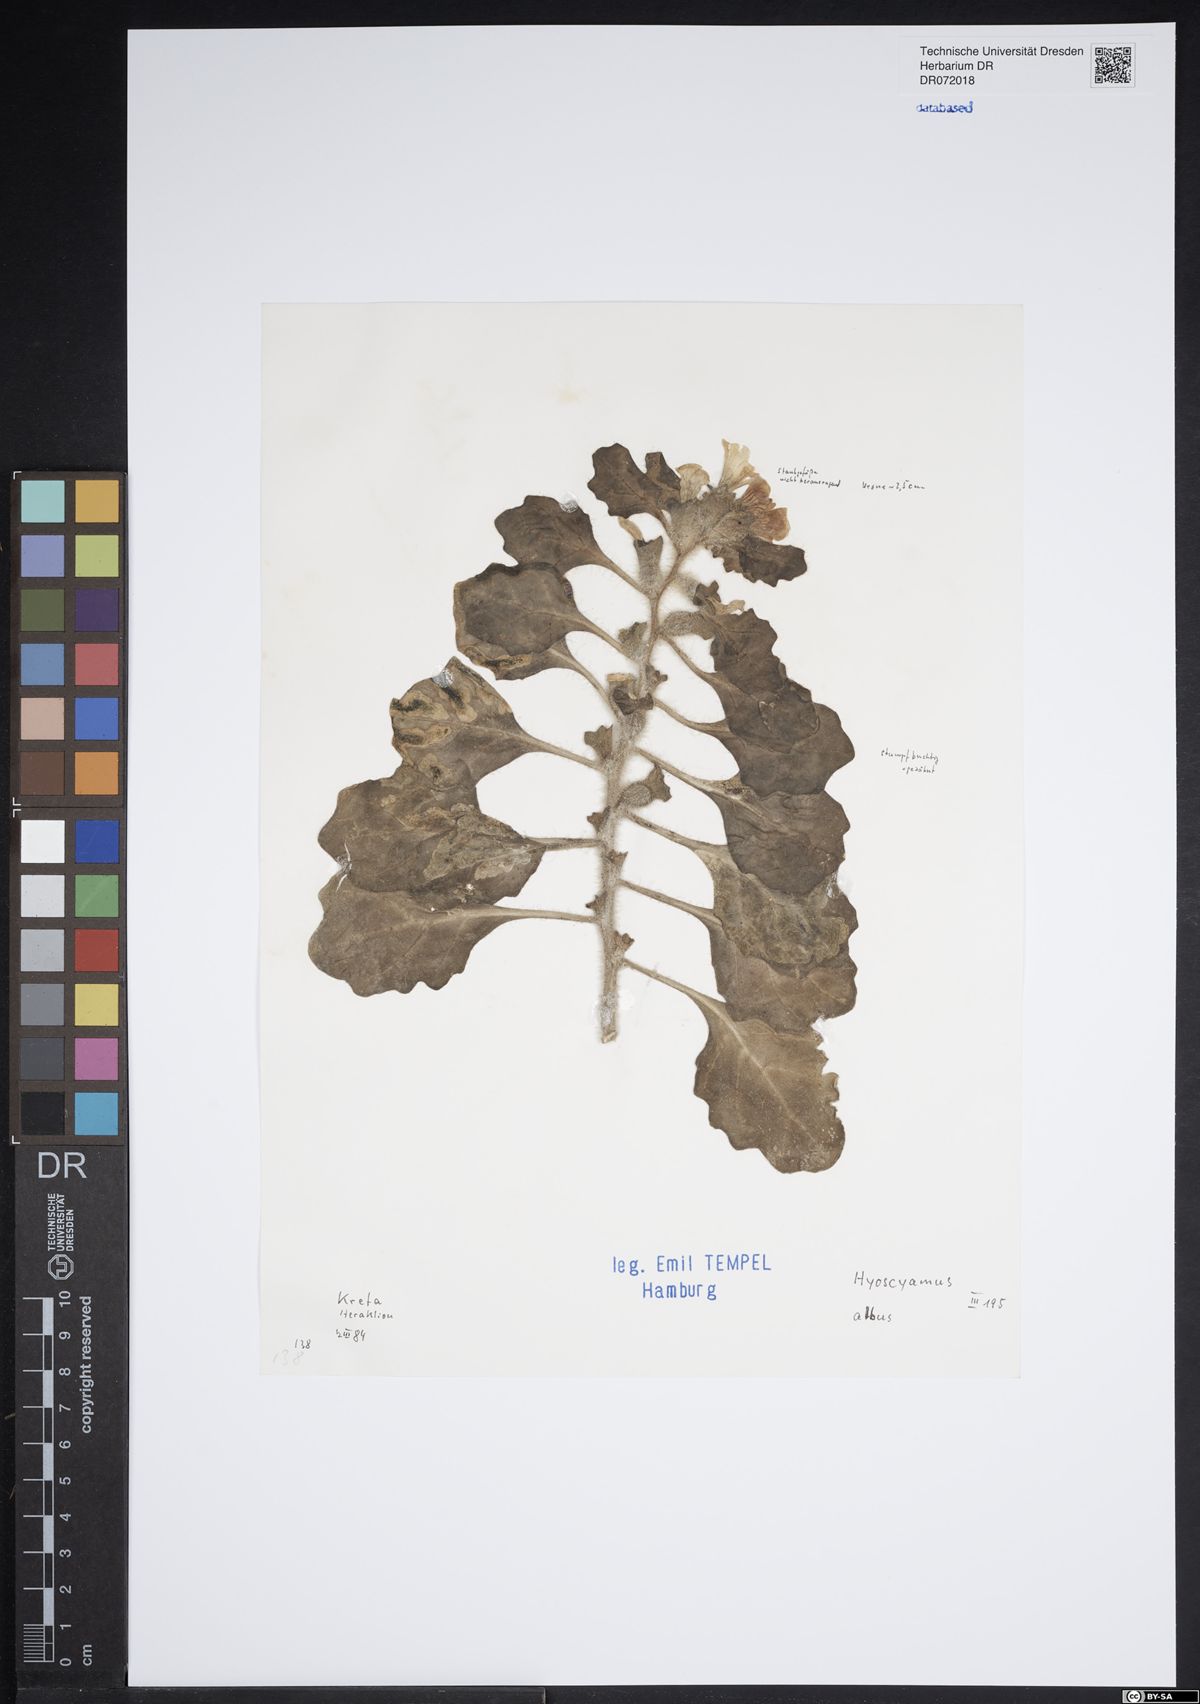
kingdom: Plantae
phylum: Tracheophyta
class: Magnoliopsida
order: Solanales
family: Solanaceae
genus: Hyoscyamus
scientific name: Hyoscyamus albus
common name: White henbane
